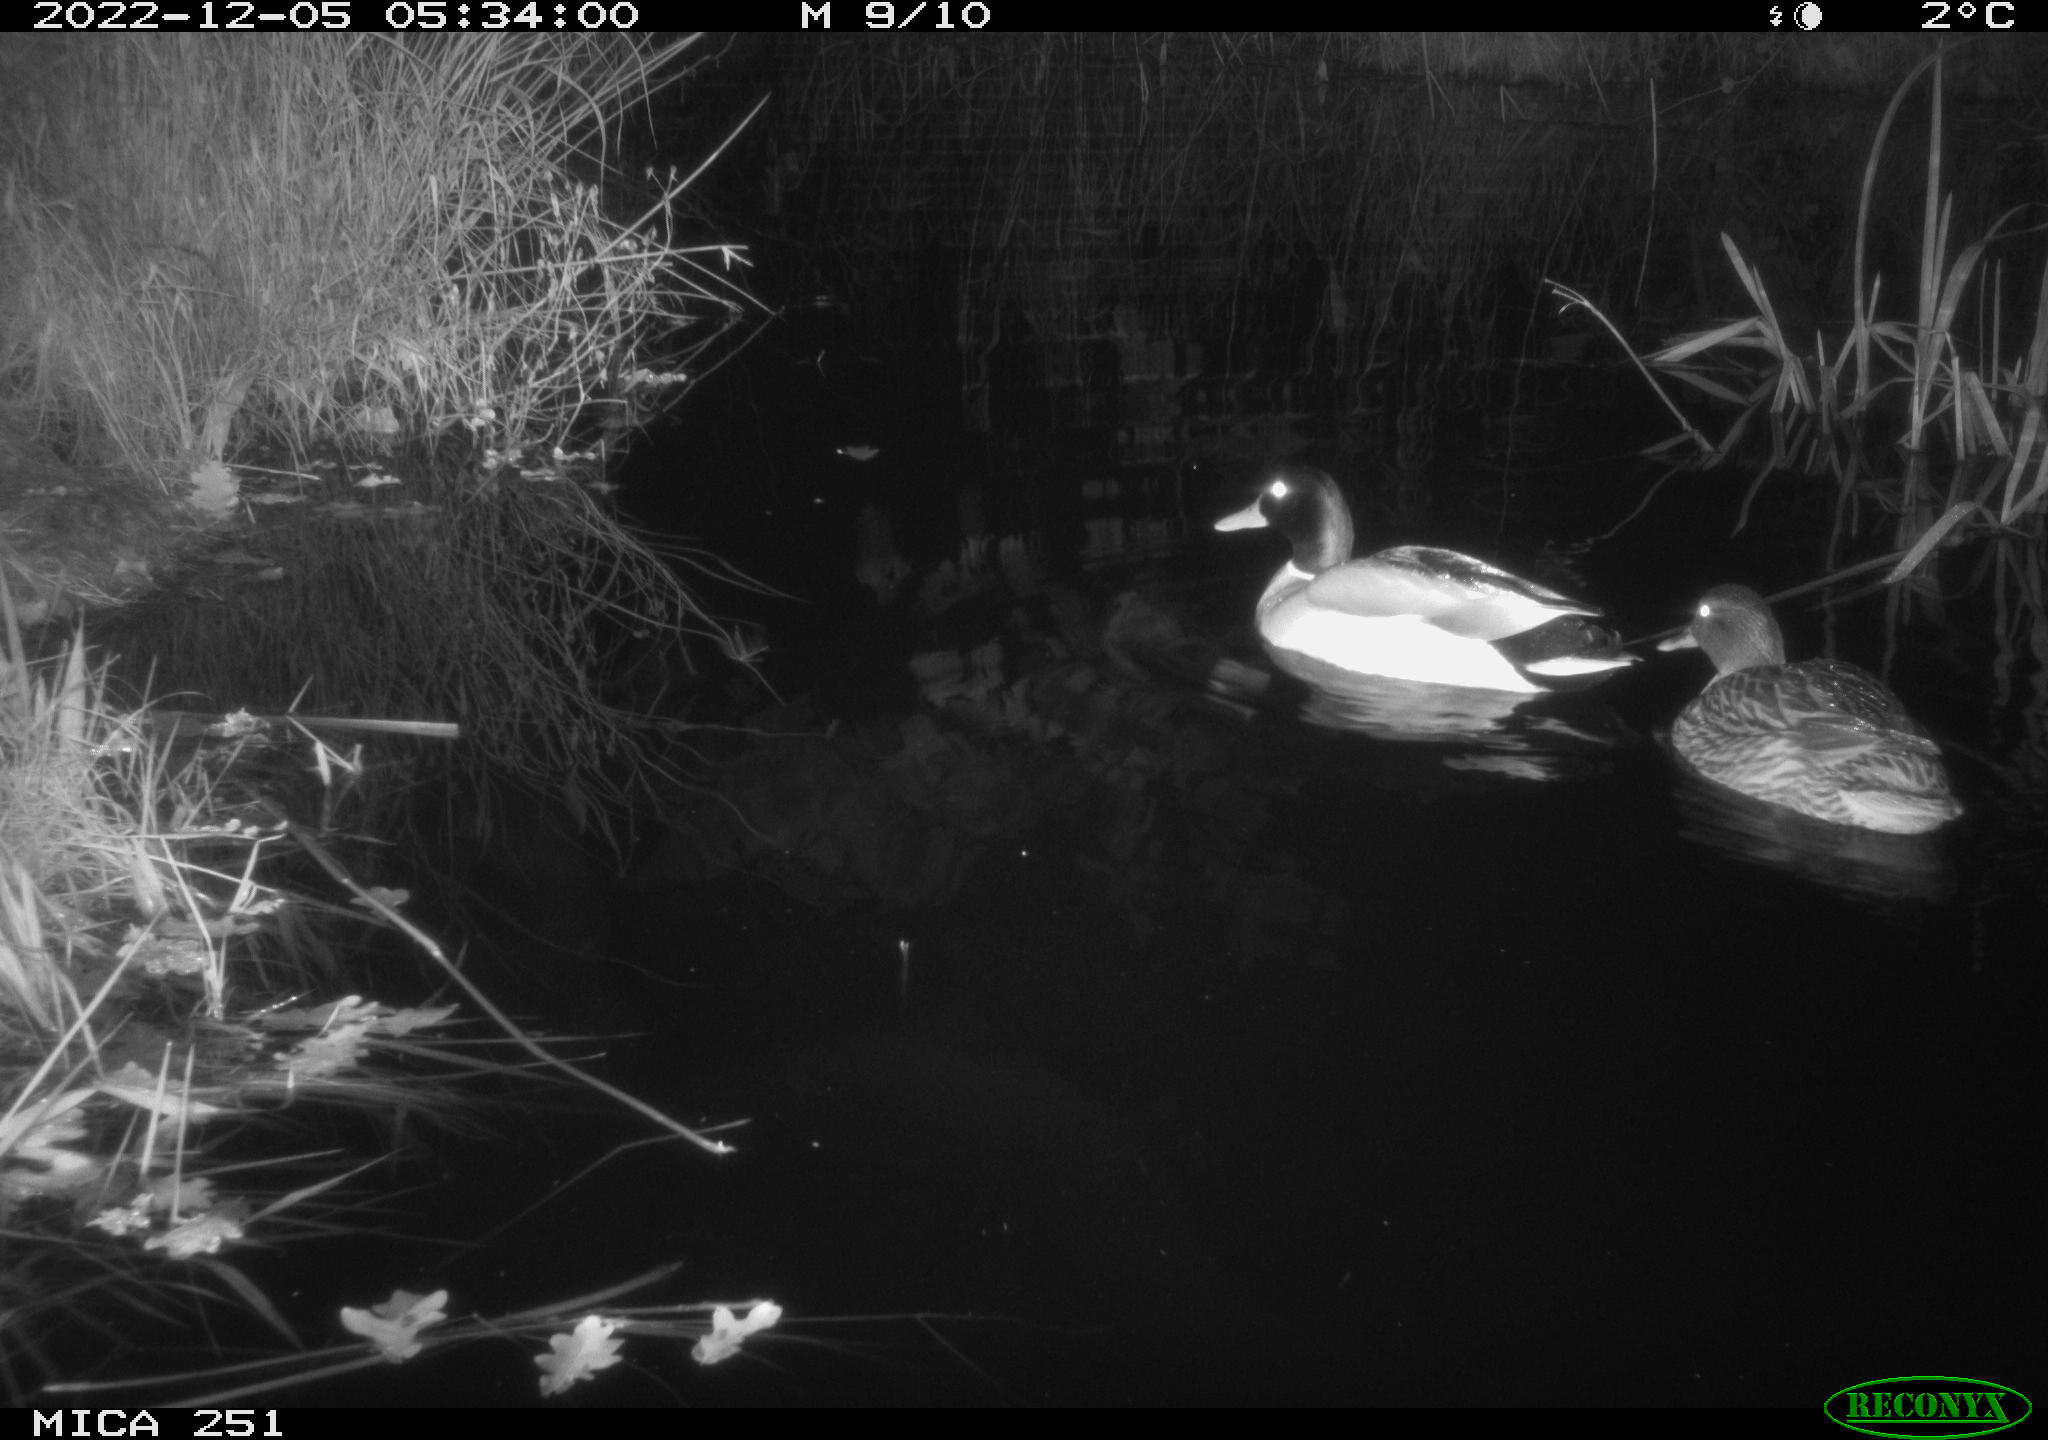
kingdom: Animalia
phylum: Chordata
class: Aves
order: Anseriformes
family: Anatidae
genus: Anas
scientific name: Anas
